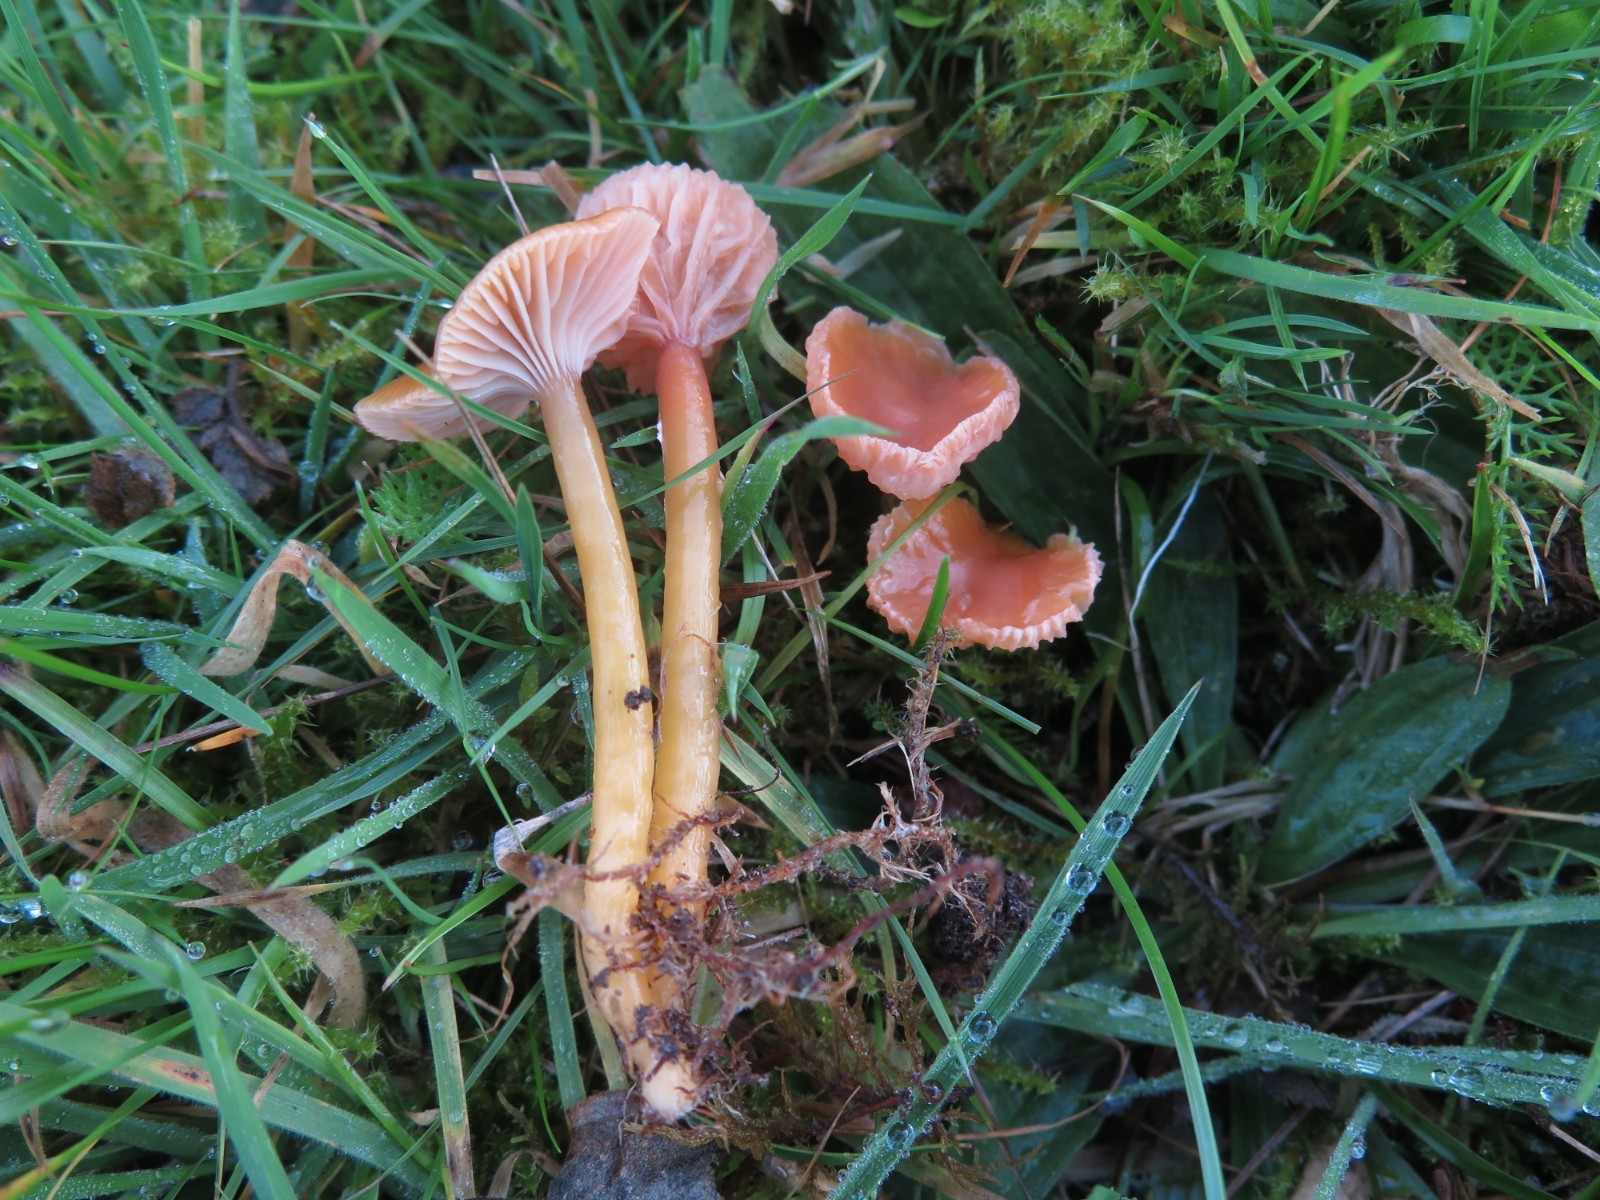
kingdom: Fungi
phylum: Basidiomycota
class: Agaricomycetes
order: Agaricales
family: Hygrophoraceae
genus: Gliophorus
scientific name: Gliophorus laetus
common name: brusk-vokshat
